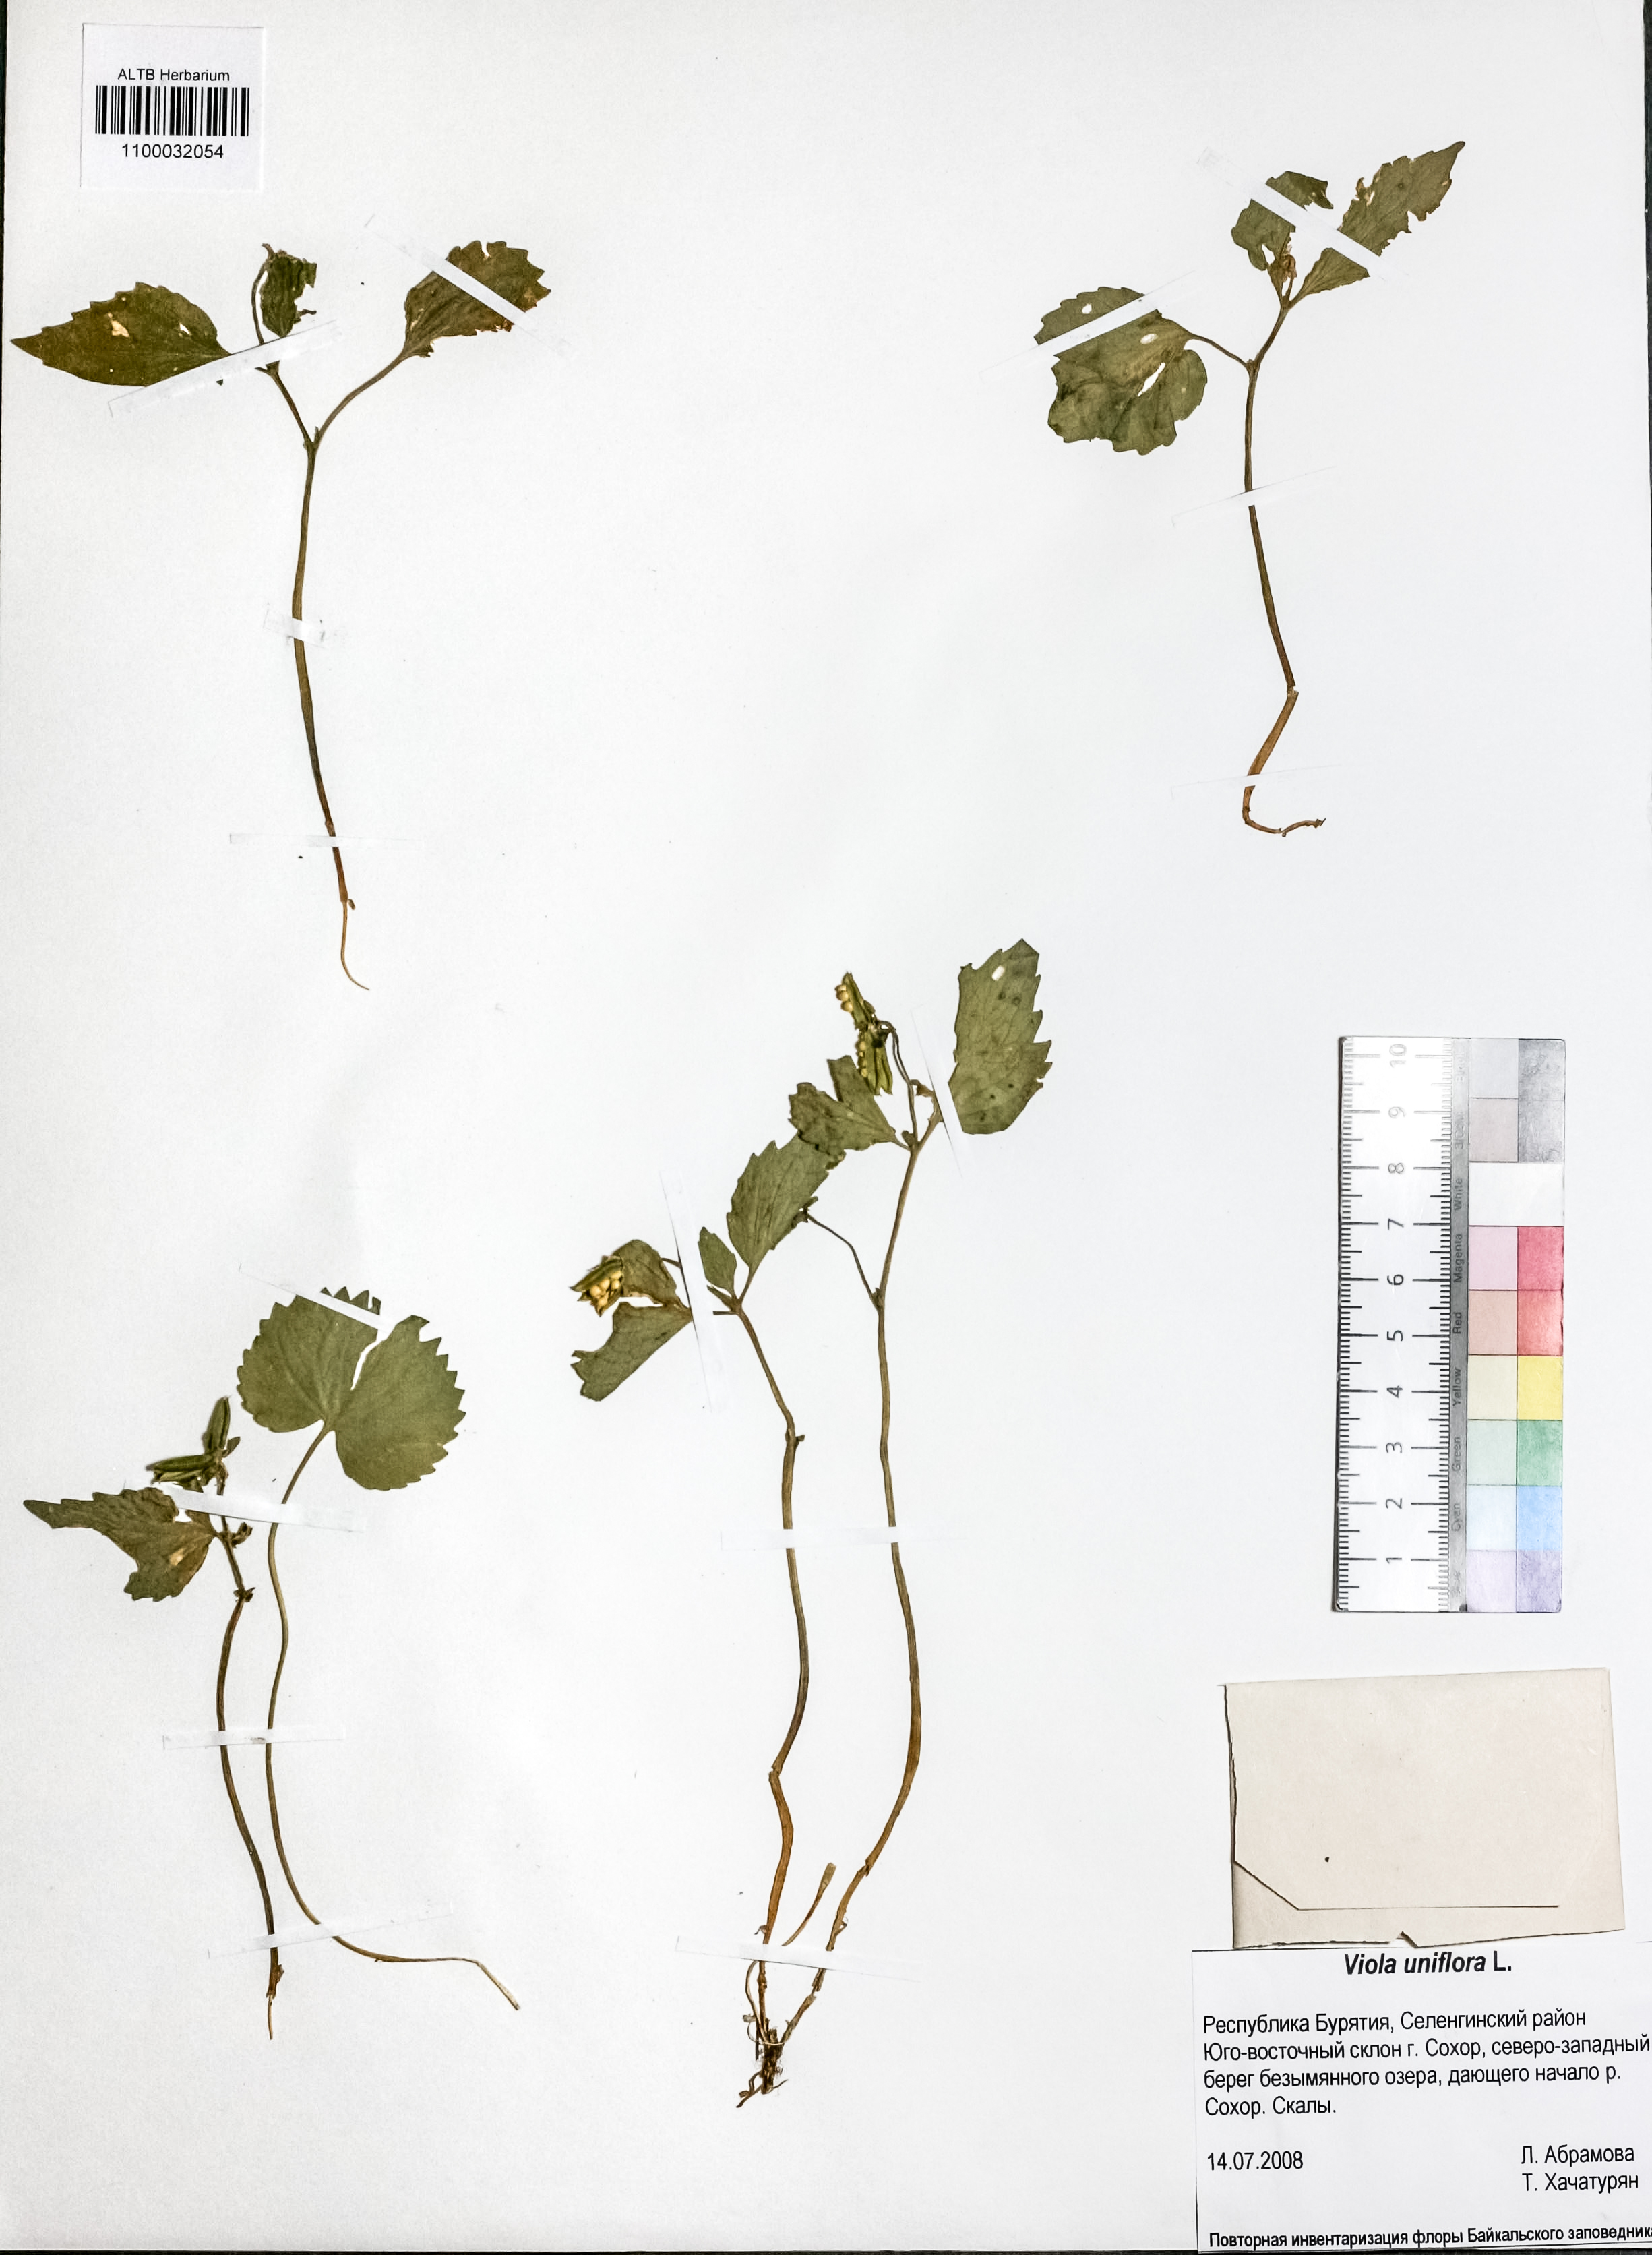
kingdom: Plantae
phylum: Tracheophyta
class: Magnoliopsida
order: Malpighiales
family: Violaceae
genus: Viola
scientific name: Viola uniflora
